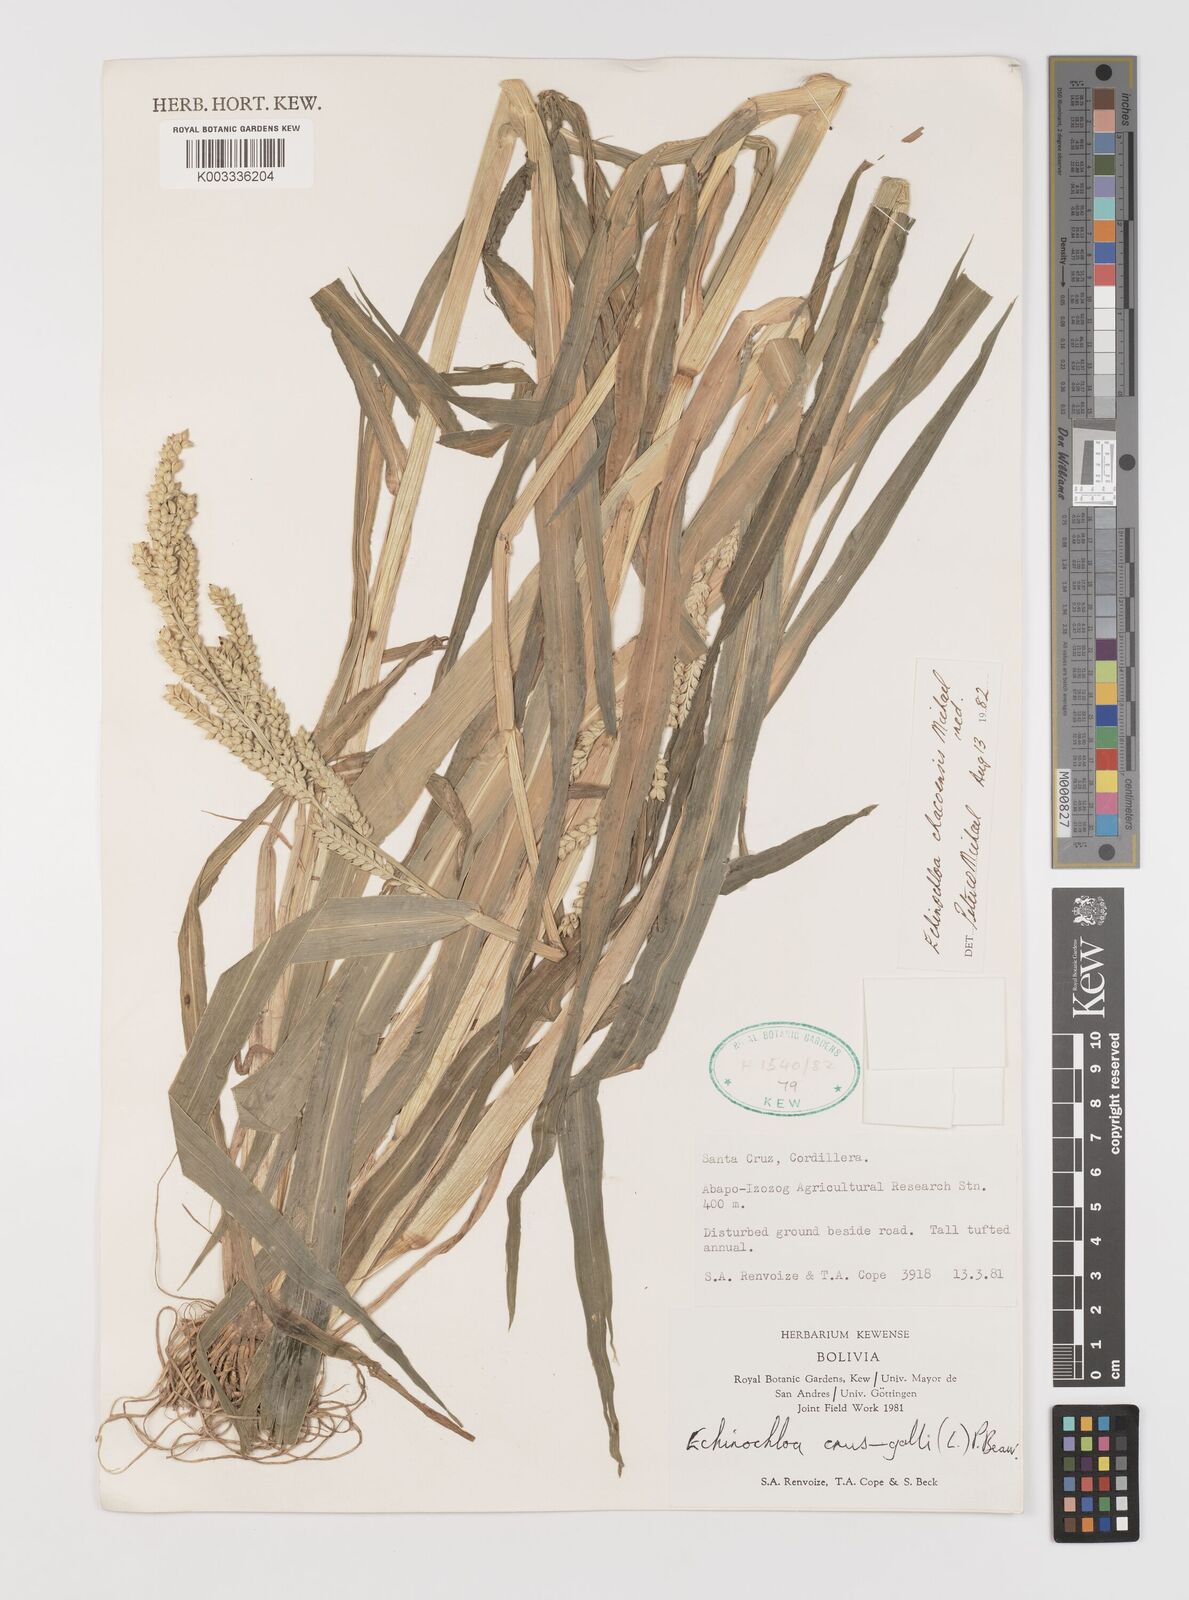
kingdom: Plantae
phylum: Tracheophyta
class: Liliopsida
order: Poales
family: Poaceae
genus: Echinochloa
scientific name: Echinochloa chacoensis
